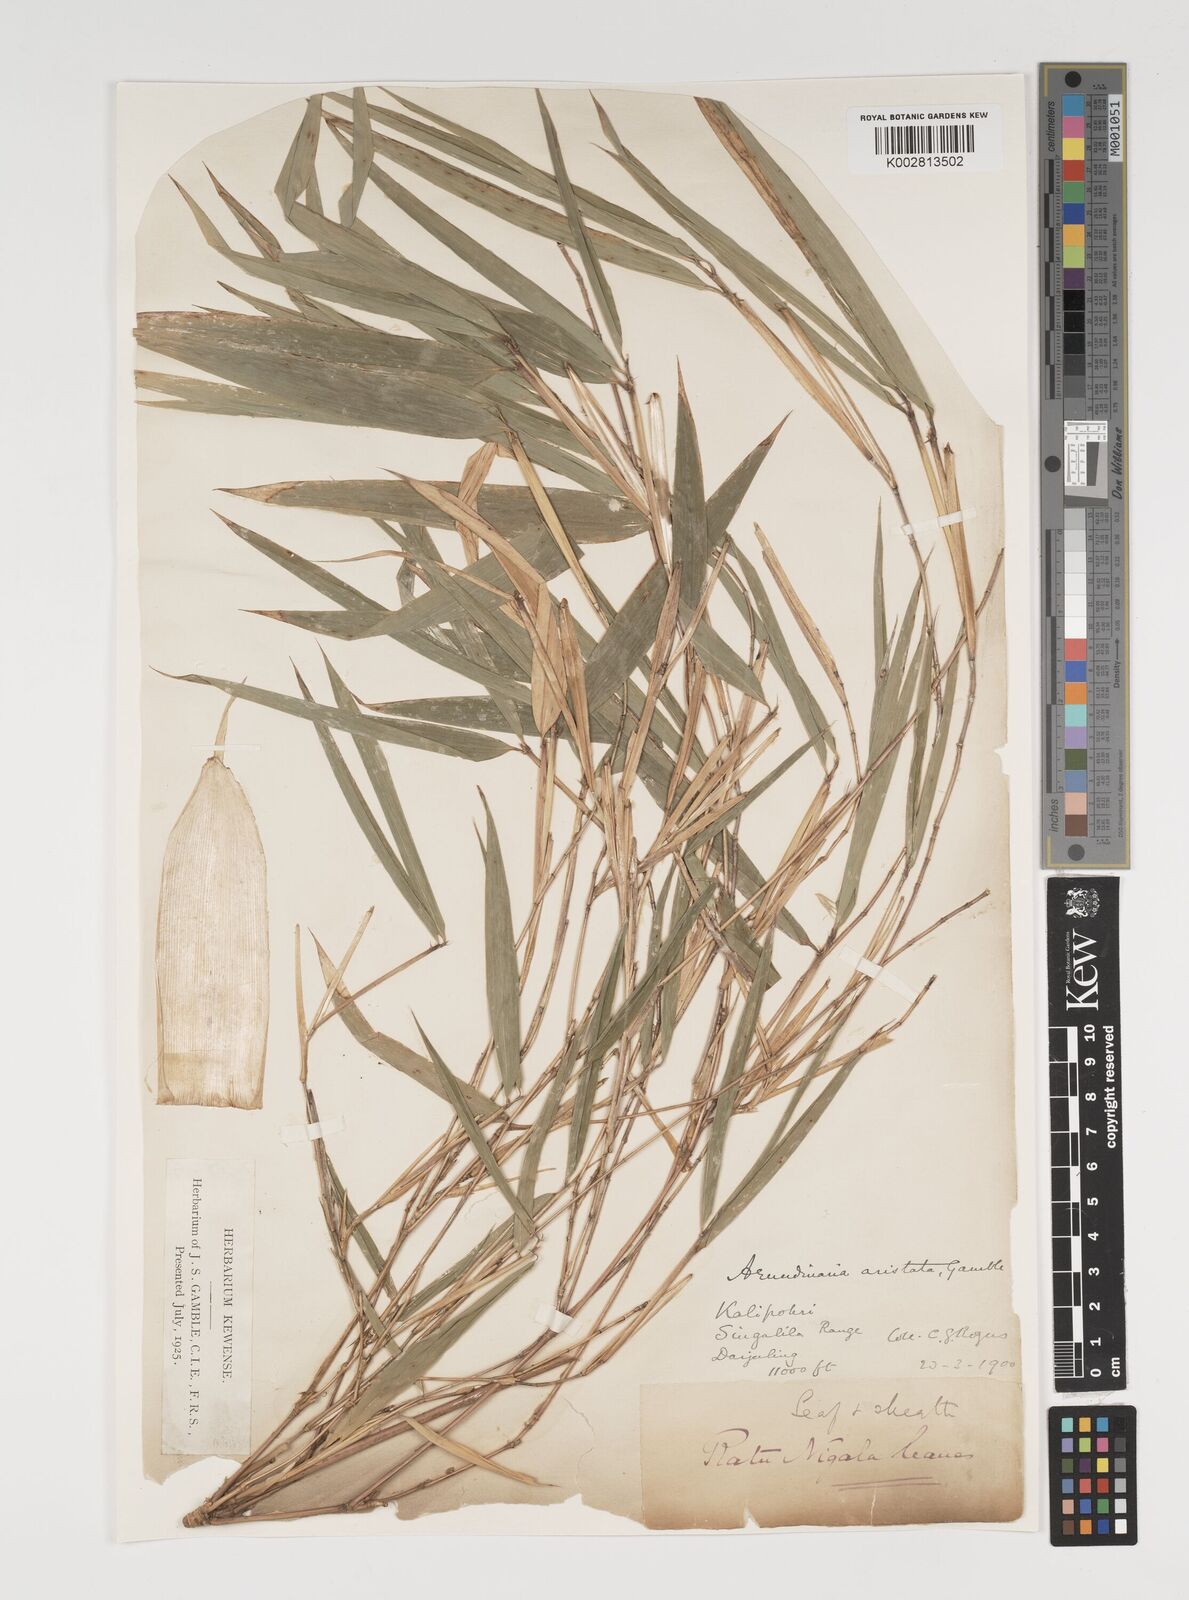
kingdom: Plantae
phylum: Tracheophyta
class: Liliopsida
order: Poales
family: Poaceae
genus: Thamnocalamus
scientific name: Thamnocalamus spathiflorus
